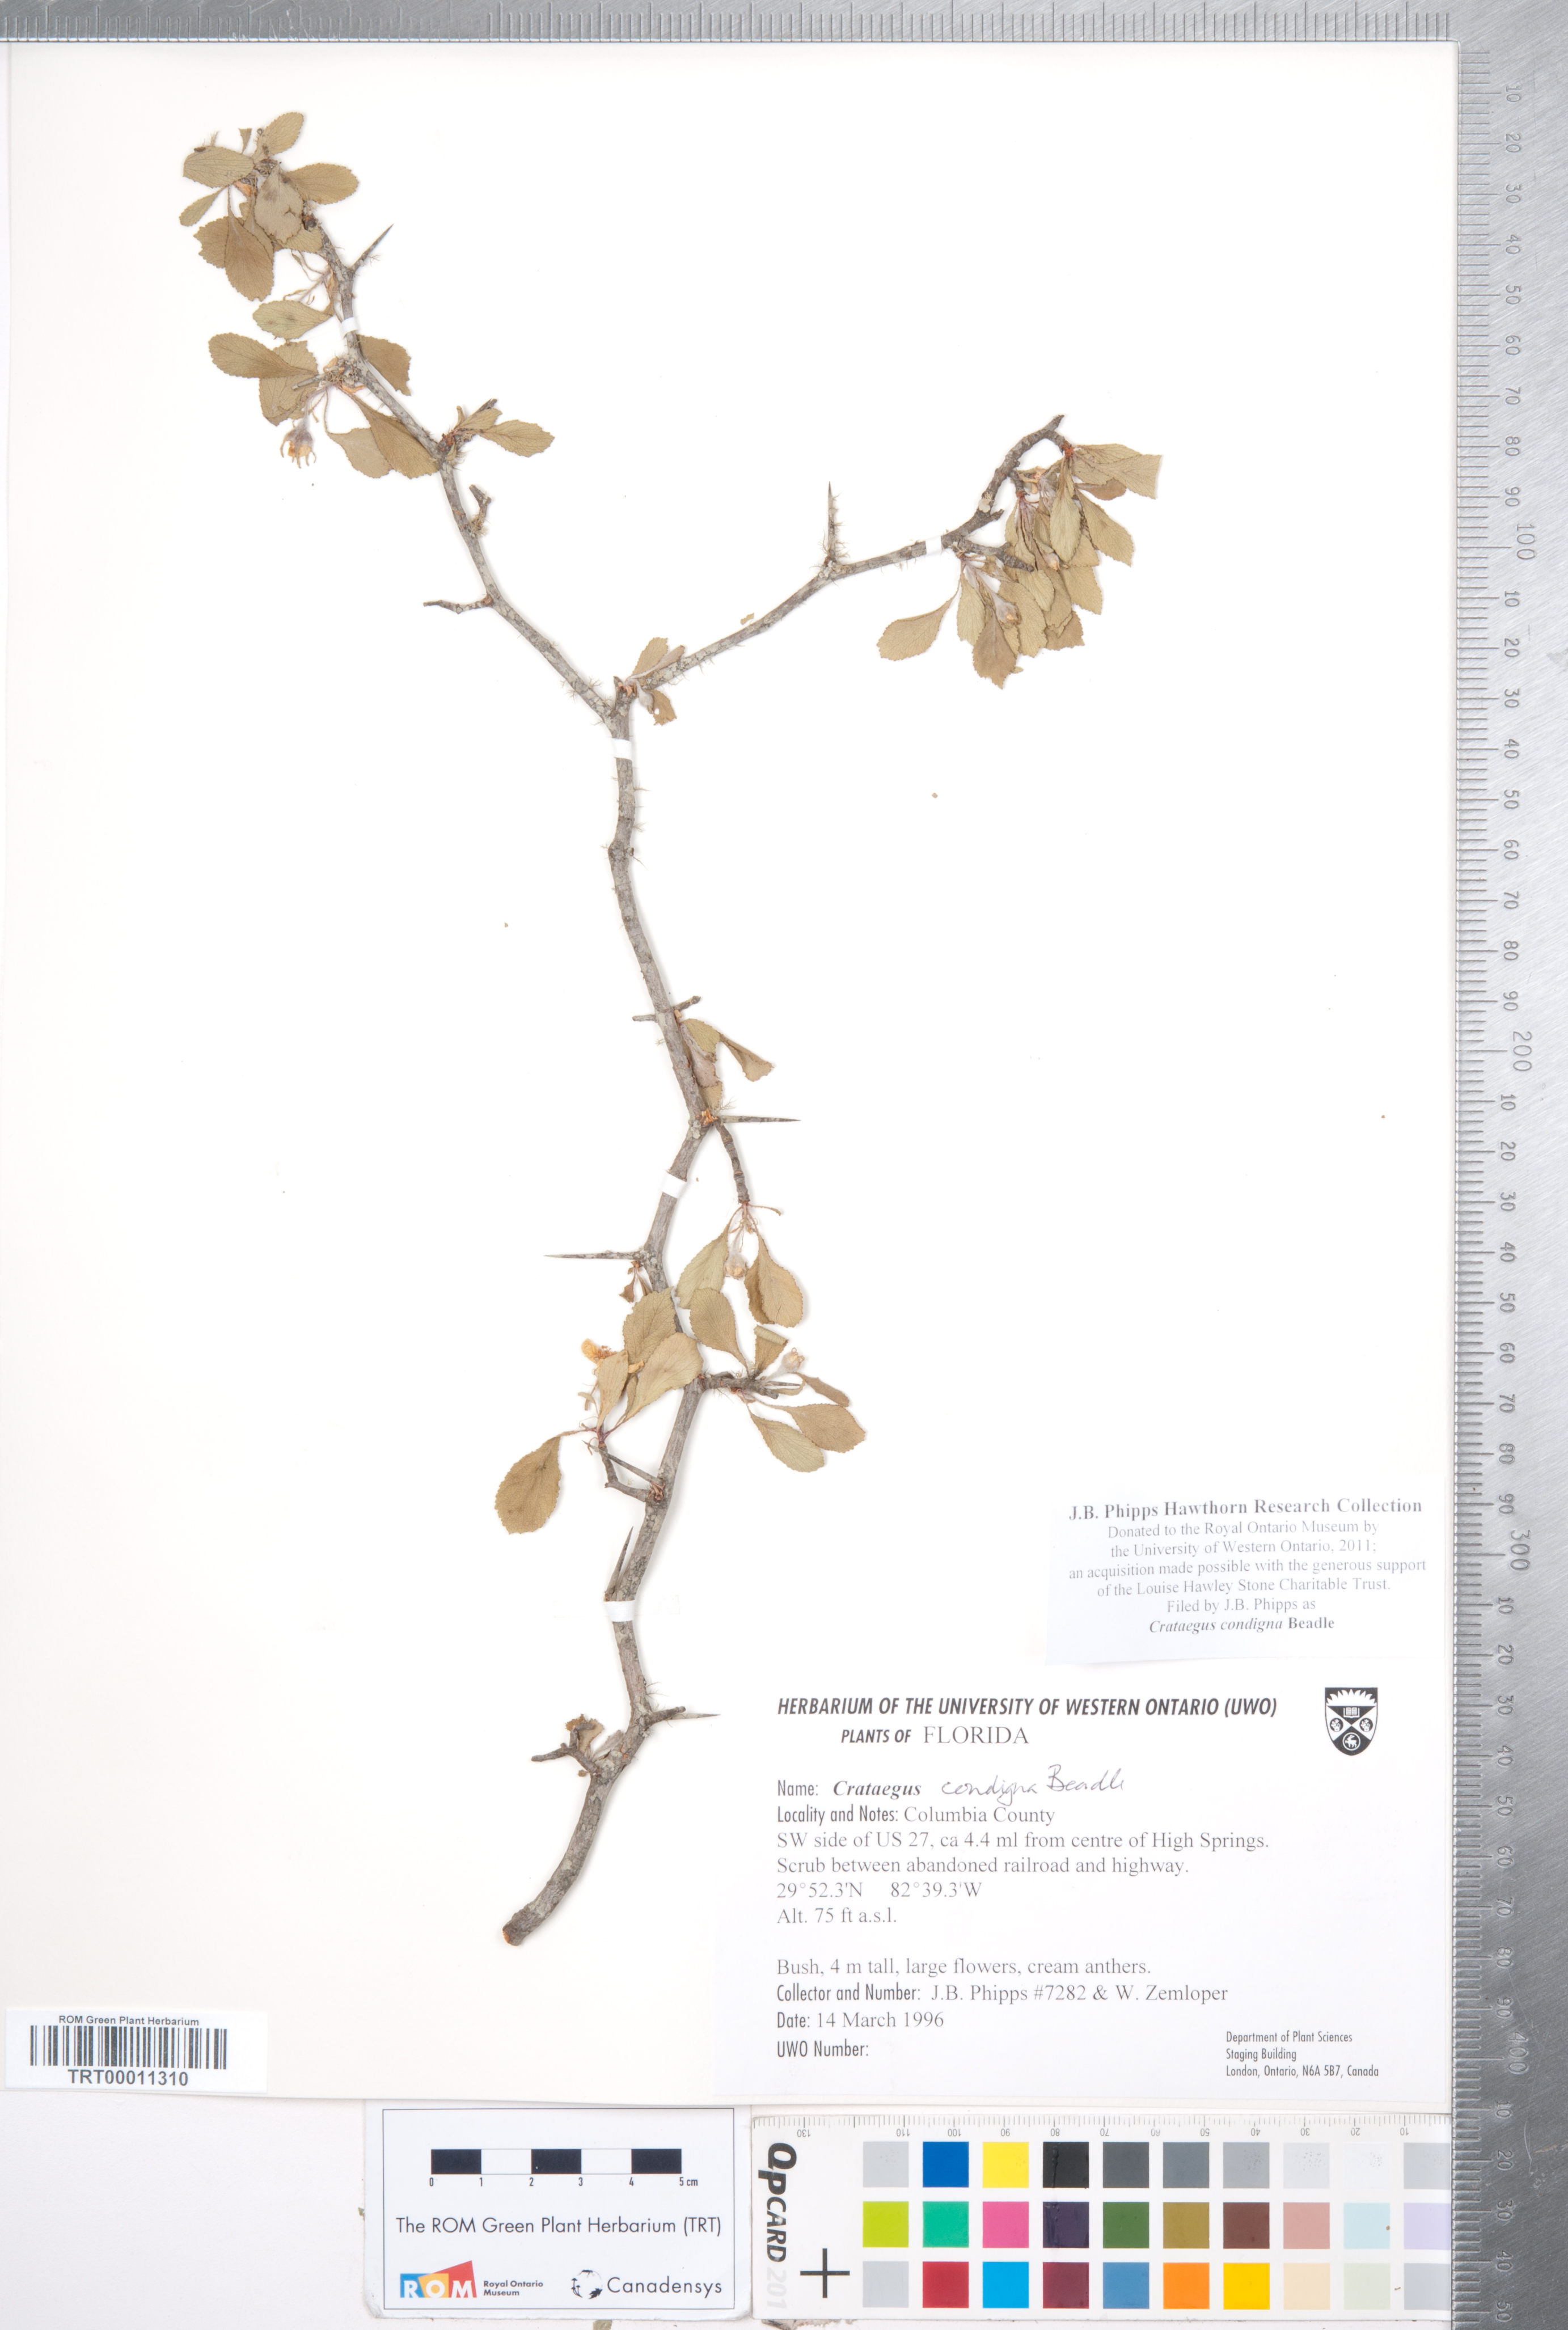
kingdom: Plantae
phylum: Tracheophyta
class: Magnoliopsida
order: Rosales
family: Rosaceae
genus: Crataegus
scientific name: Crataegus condigna
